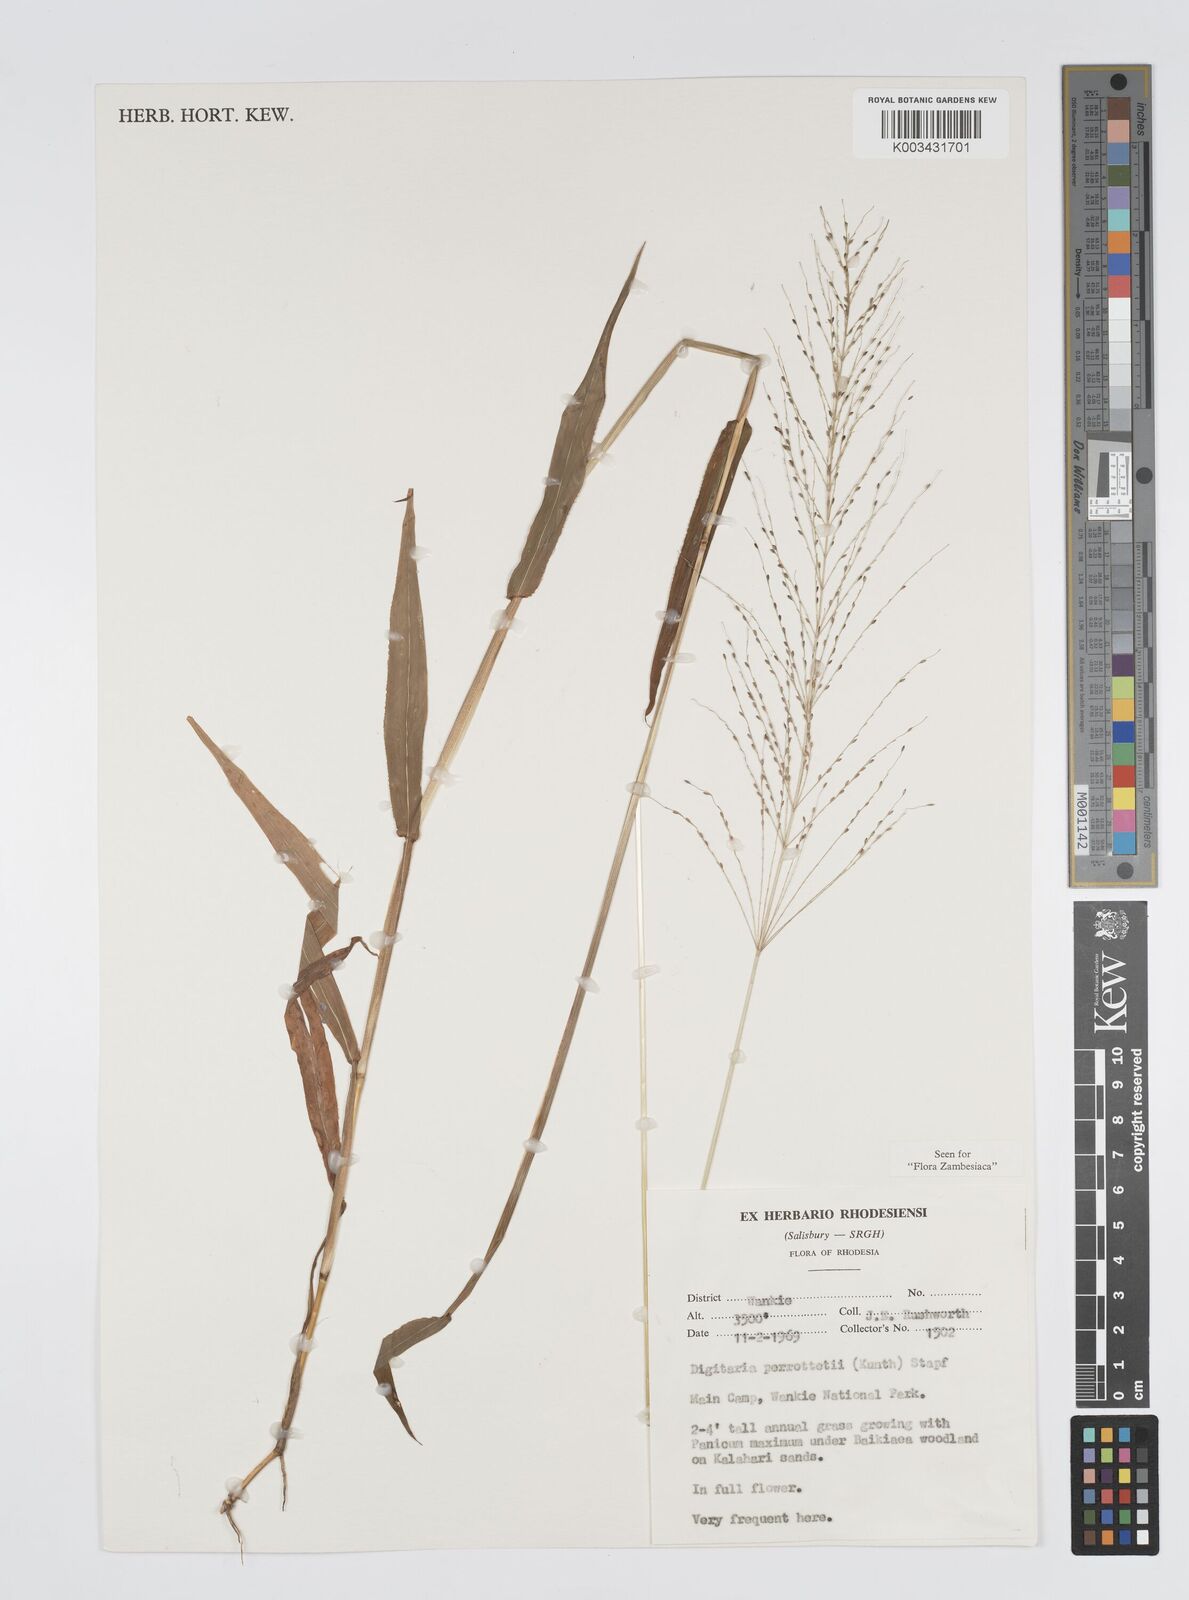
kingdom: Plantae
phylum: Tracheophyta
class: Liliopsida
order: Poales
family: Poaceae
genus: Digitaria
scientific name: Digitaria perrottetii
